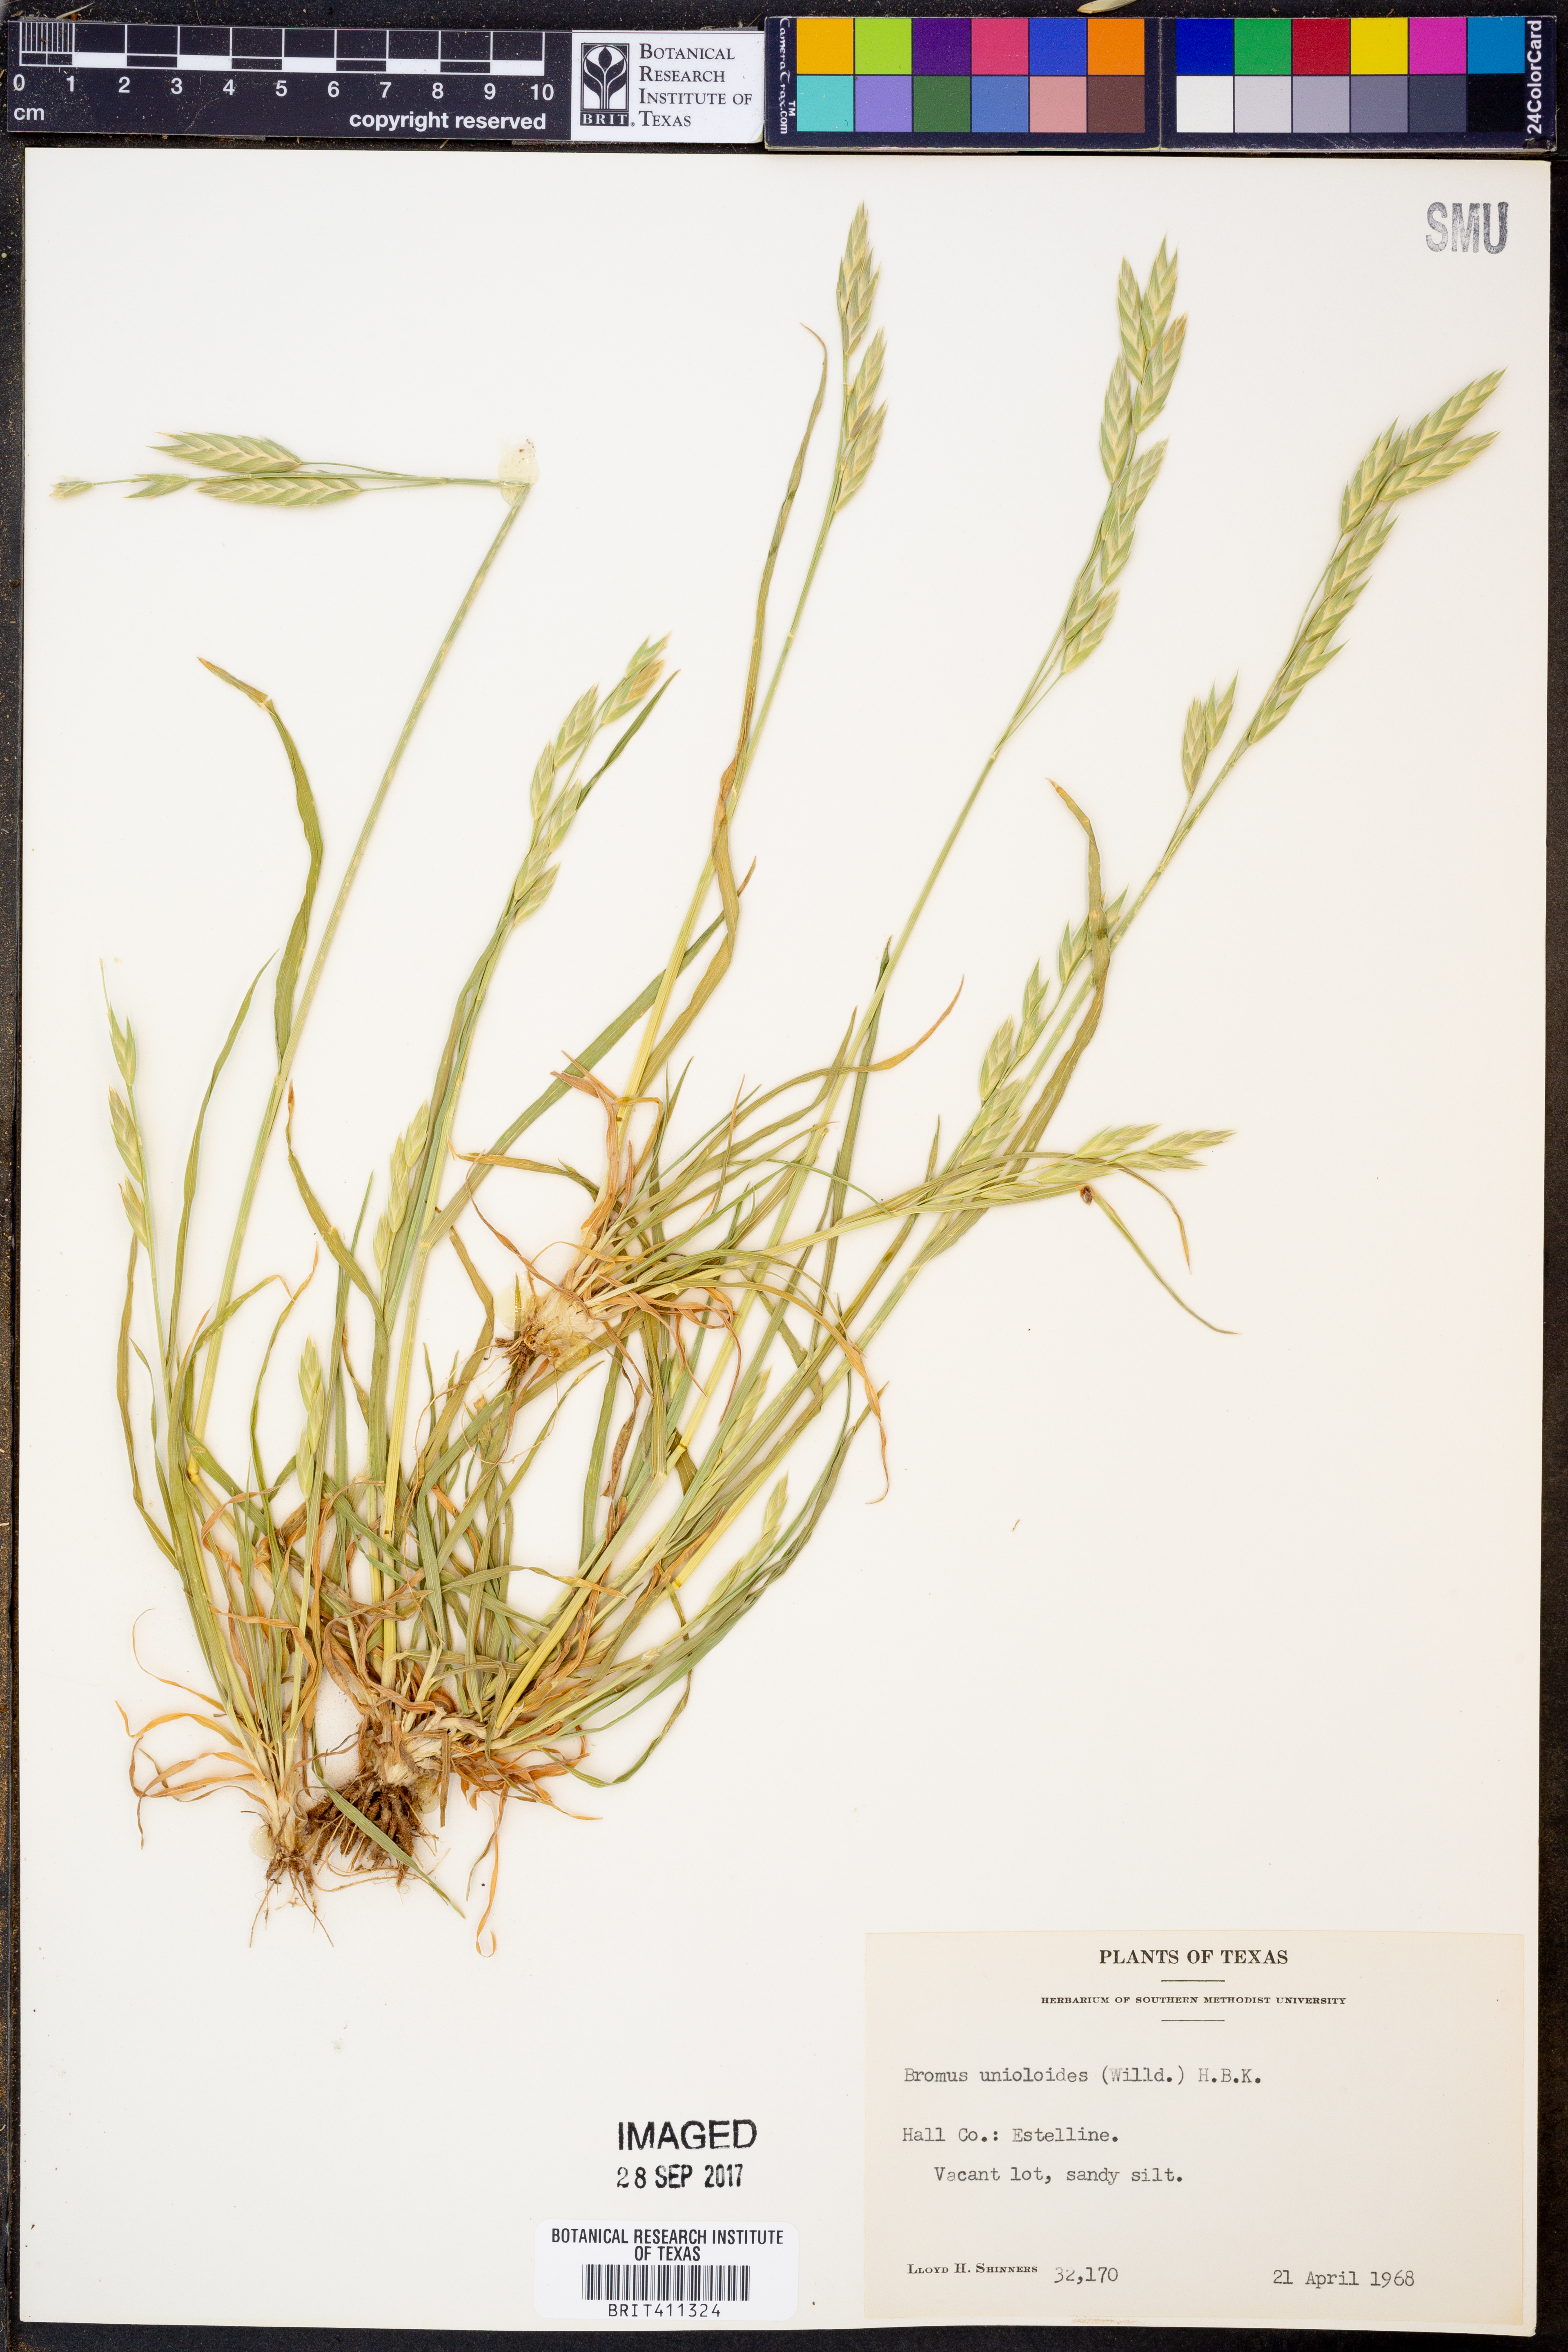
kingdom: Plantae
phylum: Tracheophyta
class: Liliopsida
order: Poales
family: Poaceae
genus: Bromus
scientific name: Bromus catharticus
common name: Rescuegrass
